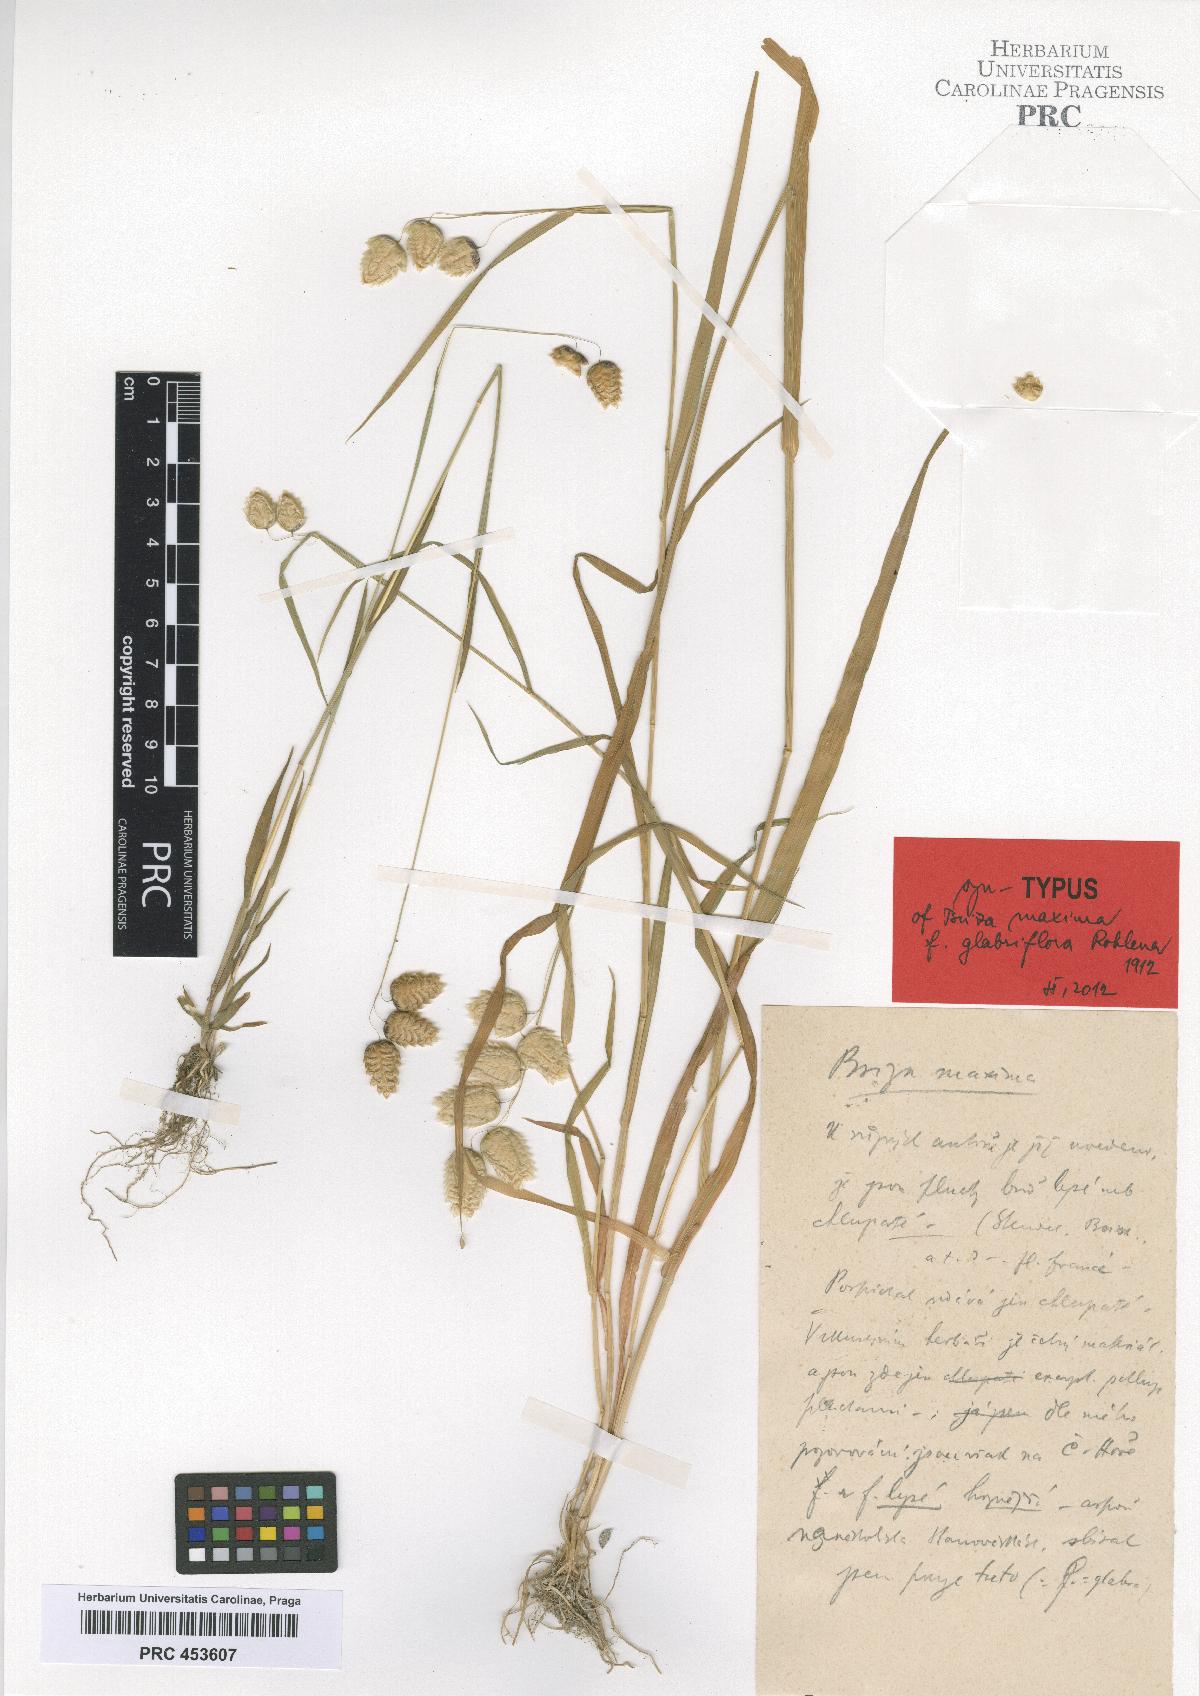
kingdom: Plantae
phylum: Tracheophyta
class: Liliopsida
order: Poales
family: Poaceae
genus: Briza
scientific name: Briza maxima
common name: Big quakinggrass
